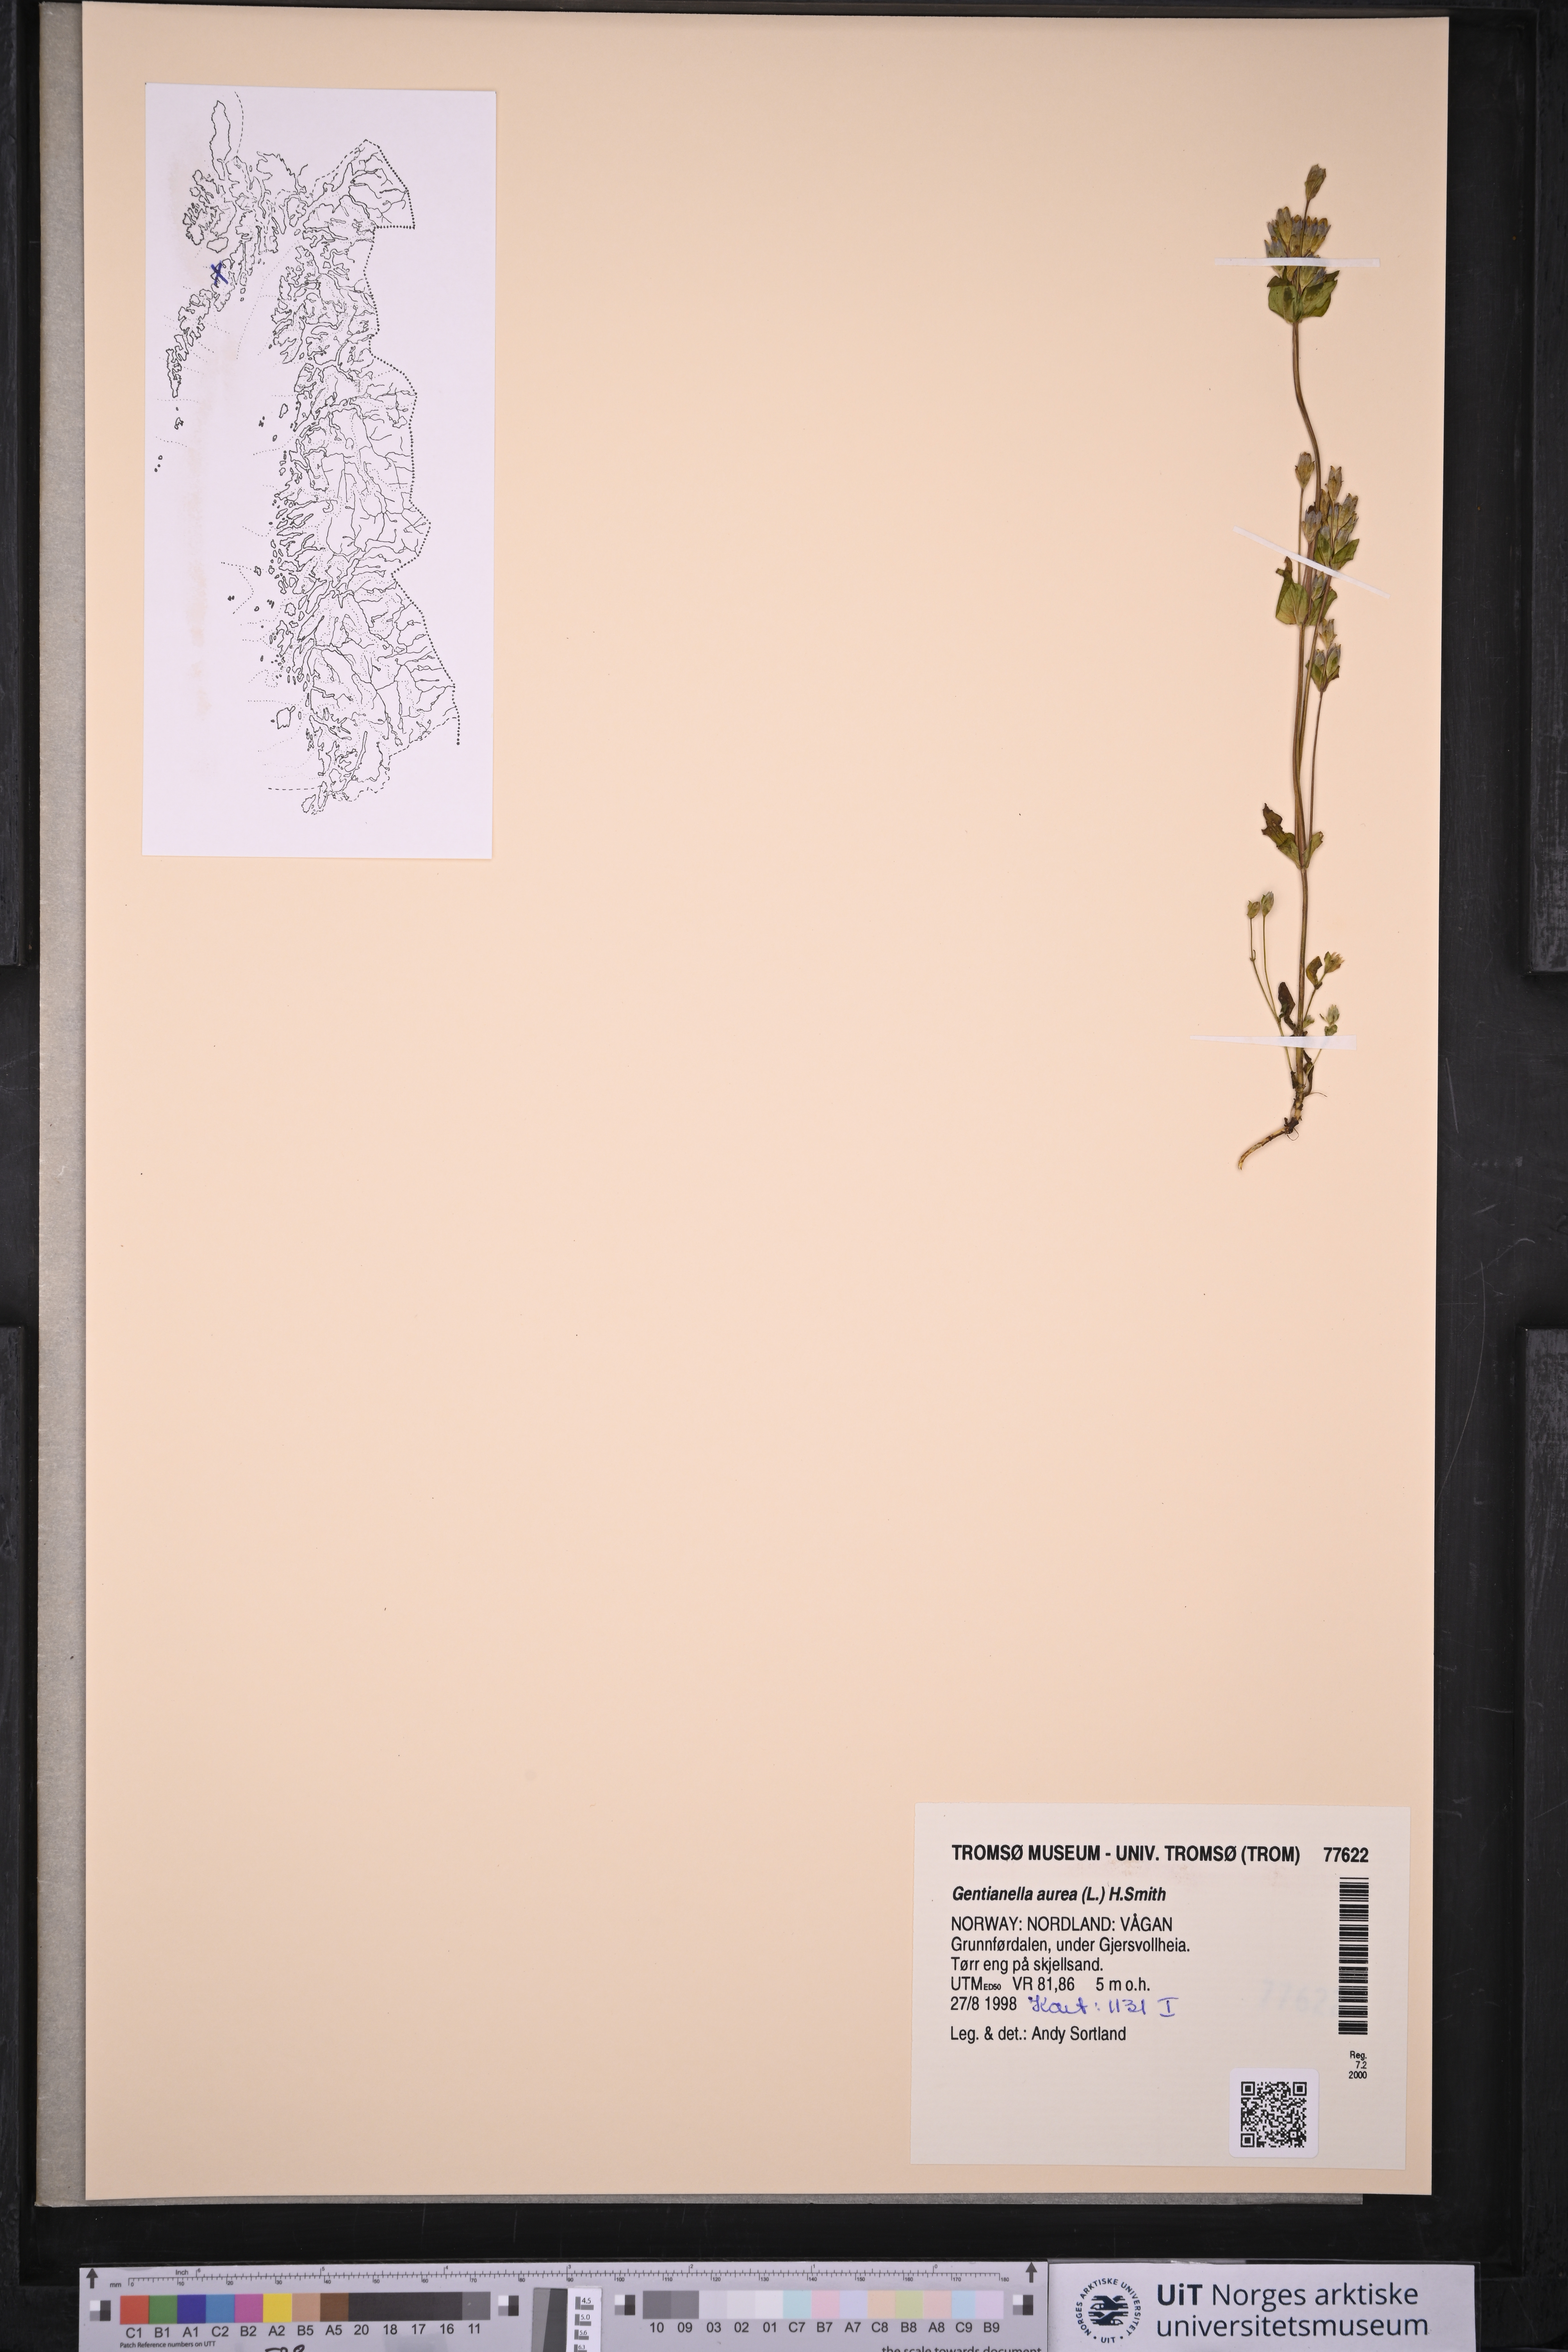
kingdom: Plantae
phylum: Tracheophyta
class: Magnoliopsida
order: Gentianales
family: Gentianaceae
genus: Gentianella
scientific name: Gentianella aurea
